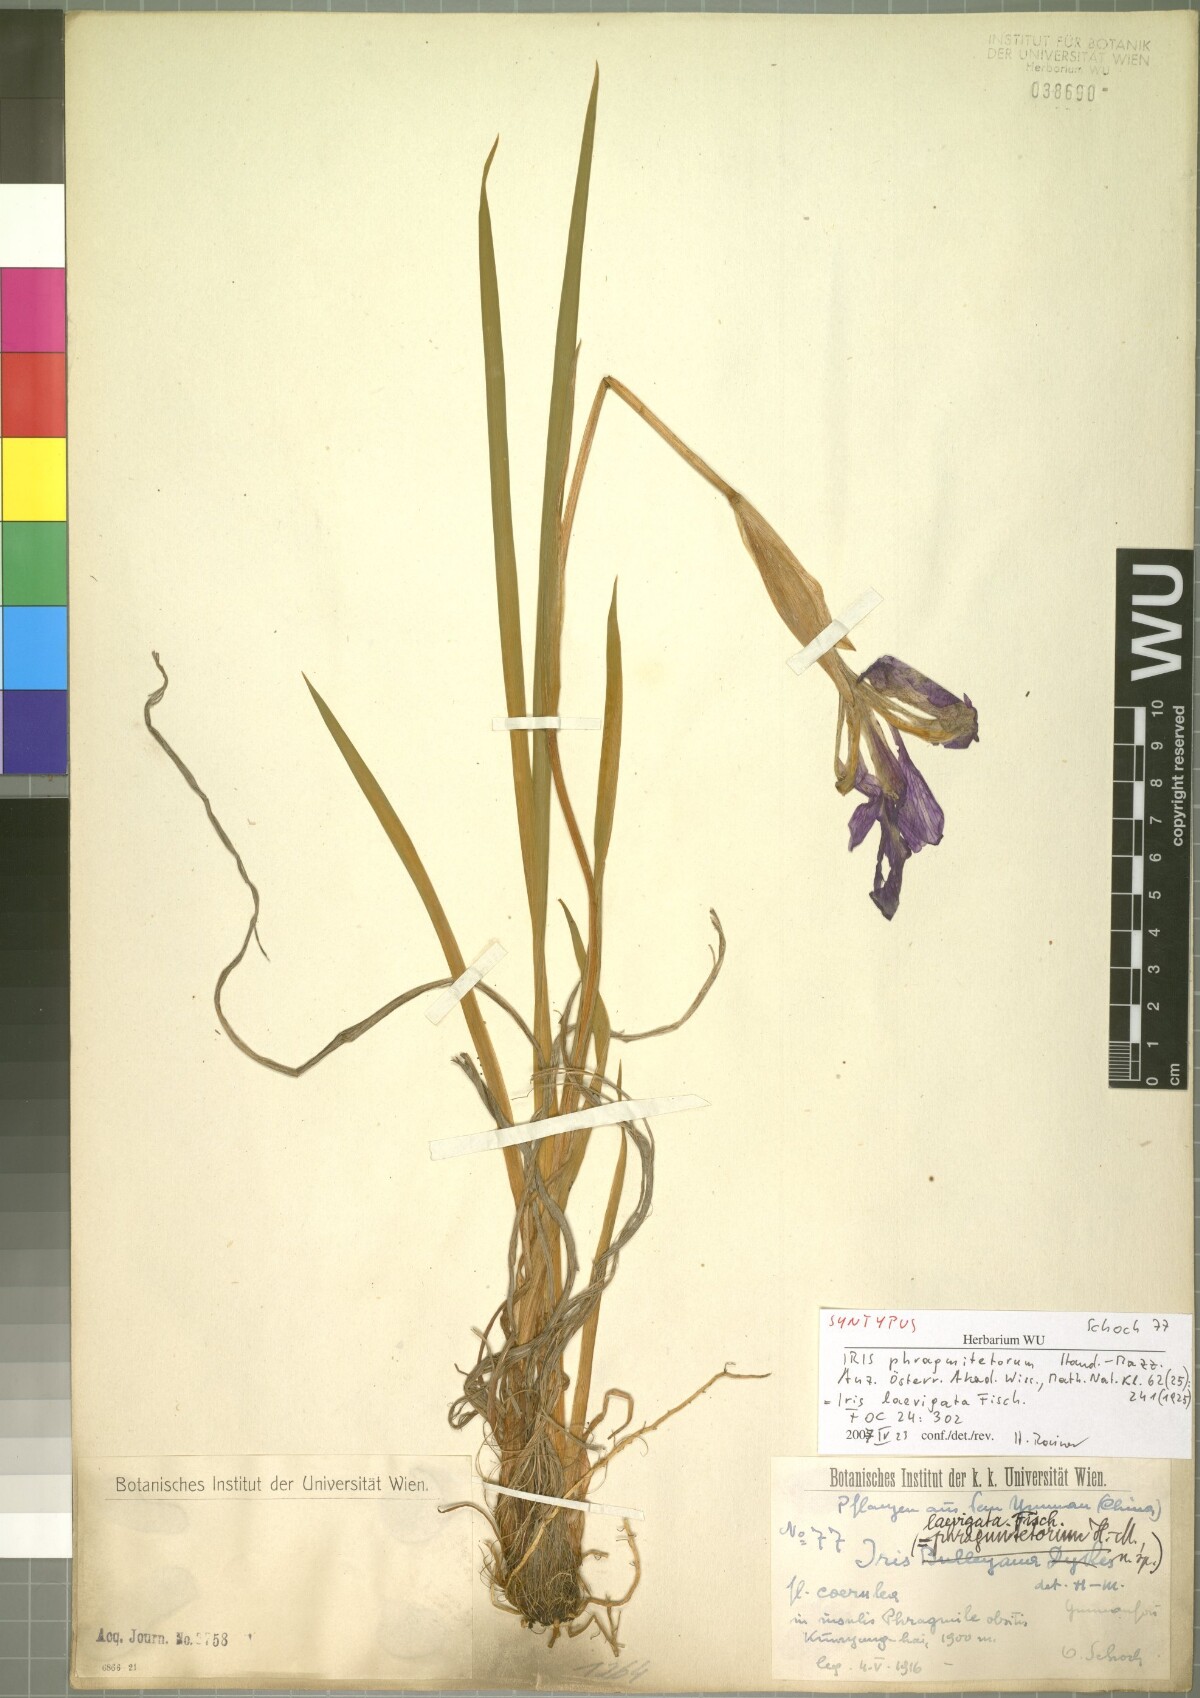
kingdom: Plantae
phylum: Tracheophyta
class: Liliopsida
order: Asparagales
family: Iridaceae
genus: Iris
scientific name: Iris laevigata
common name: Japanese iris
